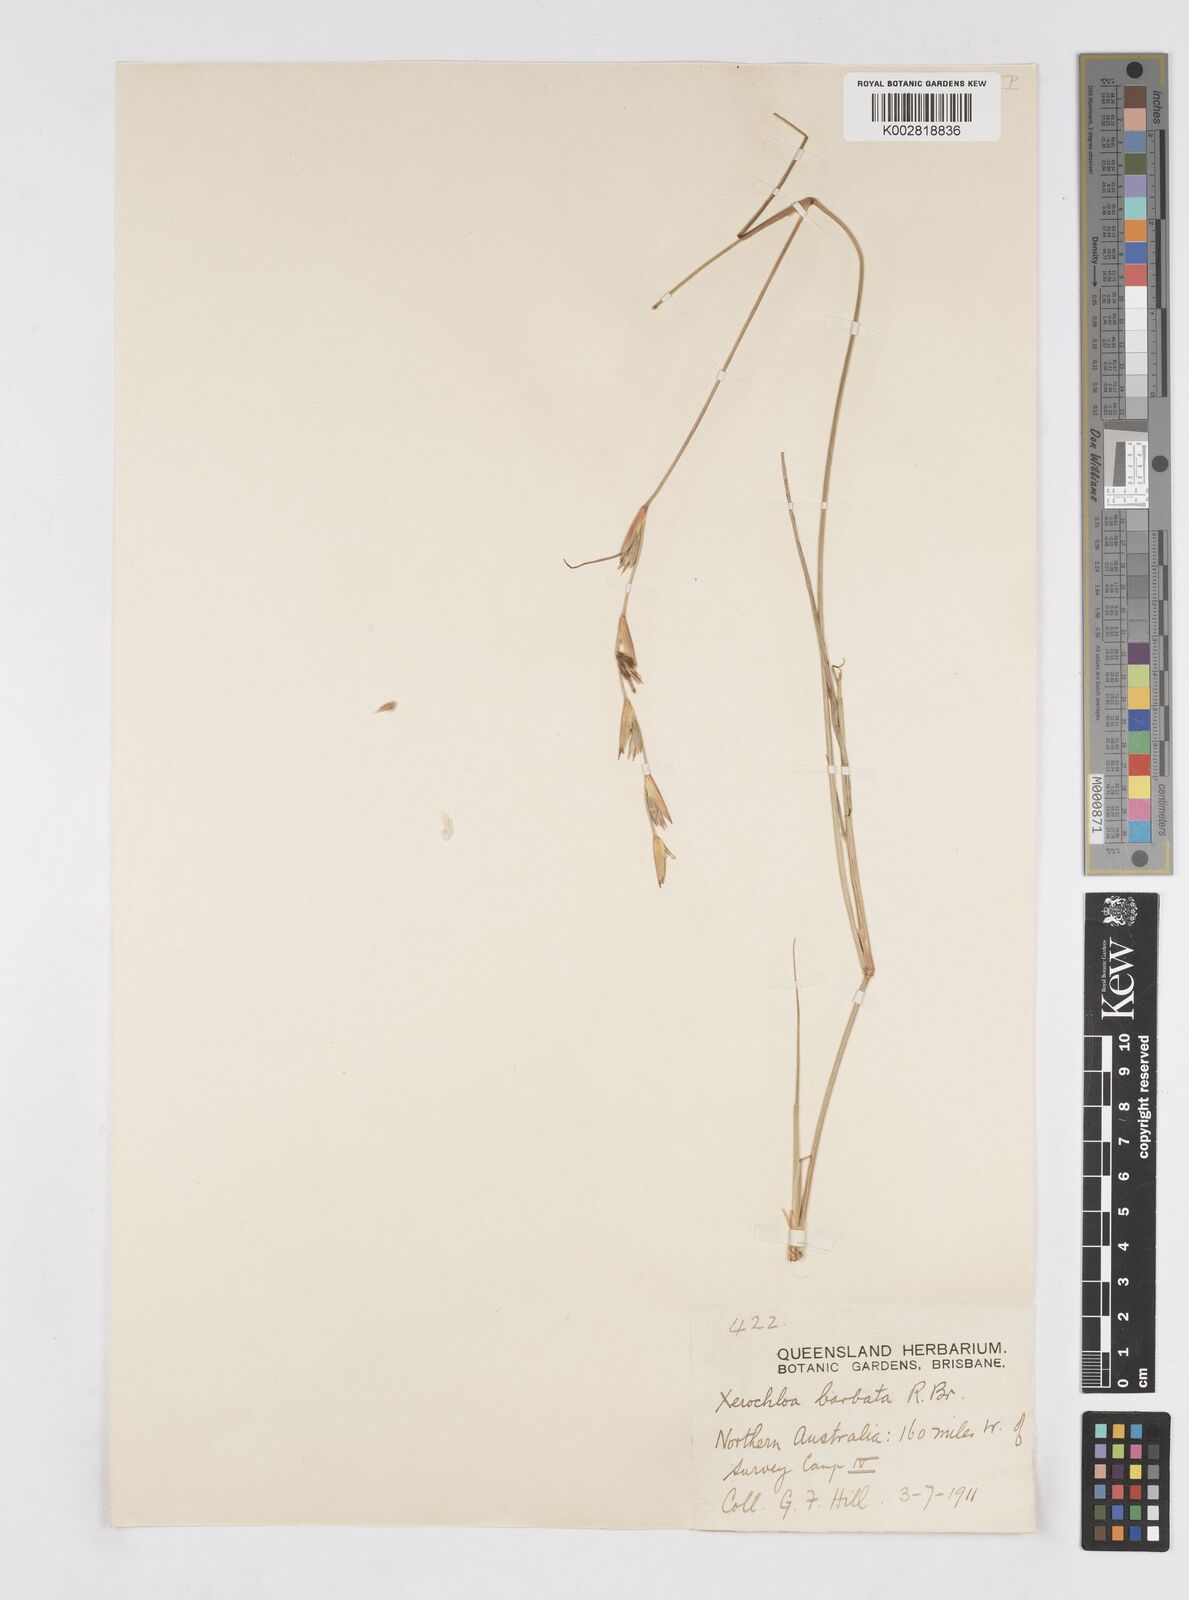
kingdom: Plantae
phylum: Tracheophyta
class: Liliopsida
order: Poales
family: Poaceae
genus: Xerochloa
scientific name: Xerochloa barbata
